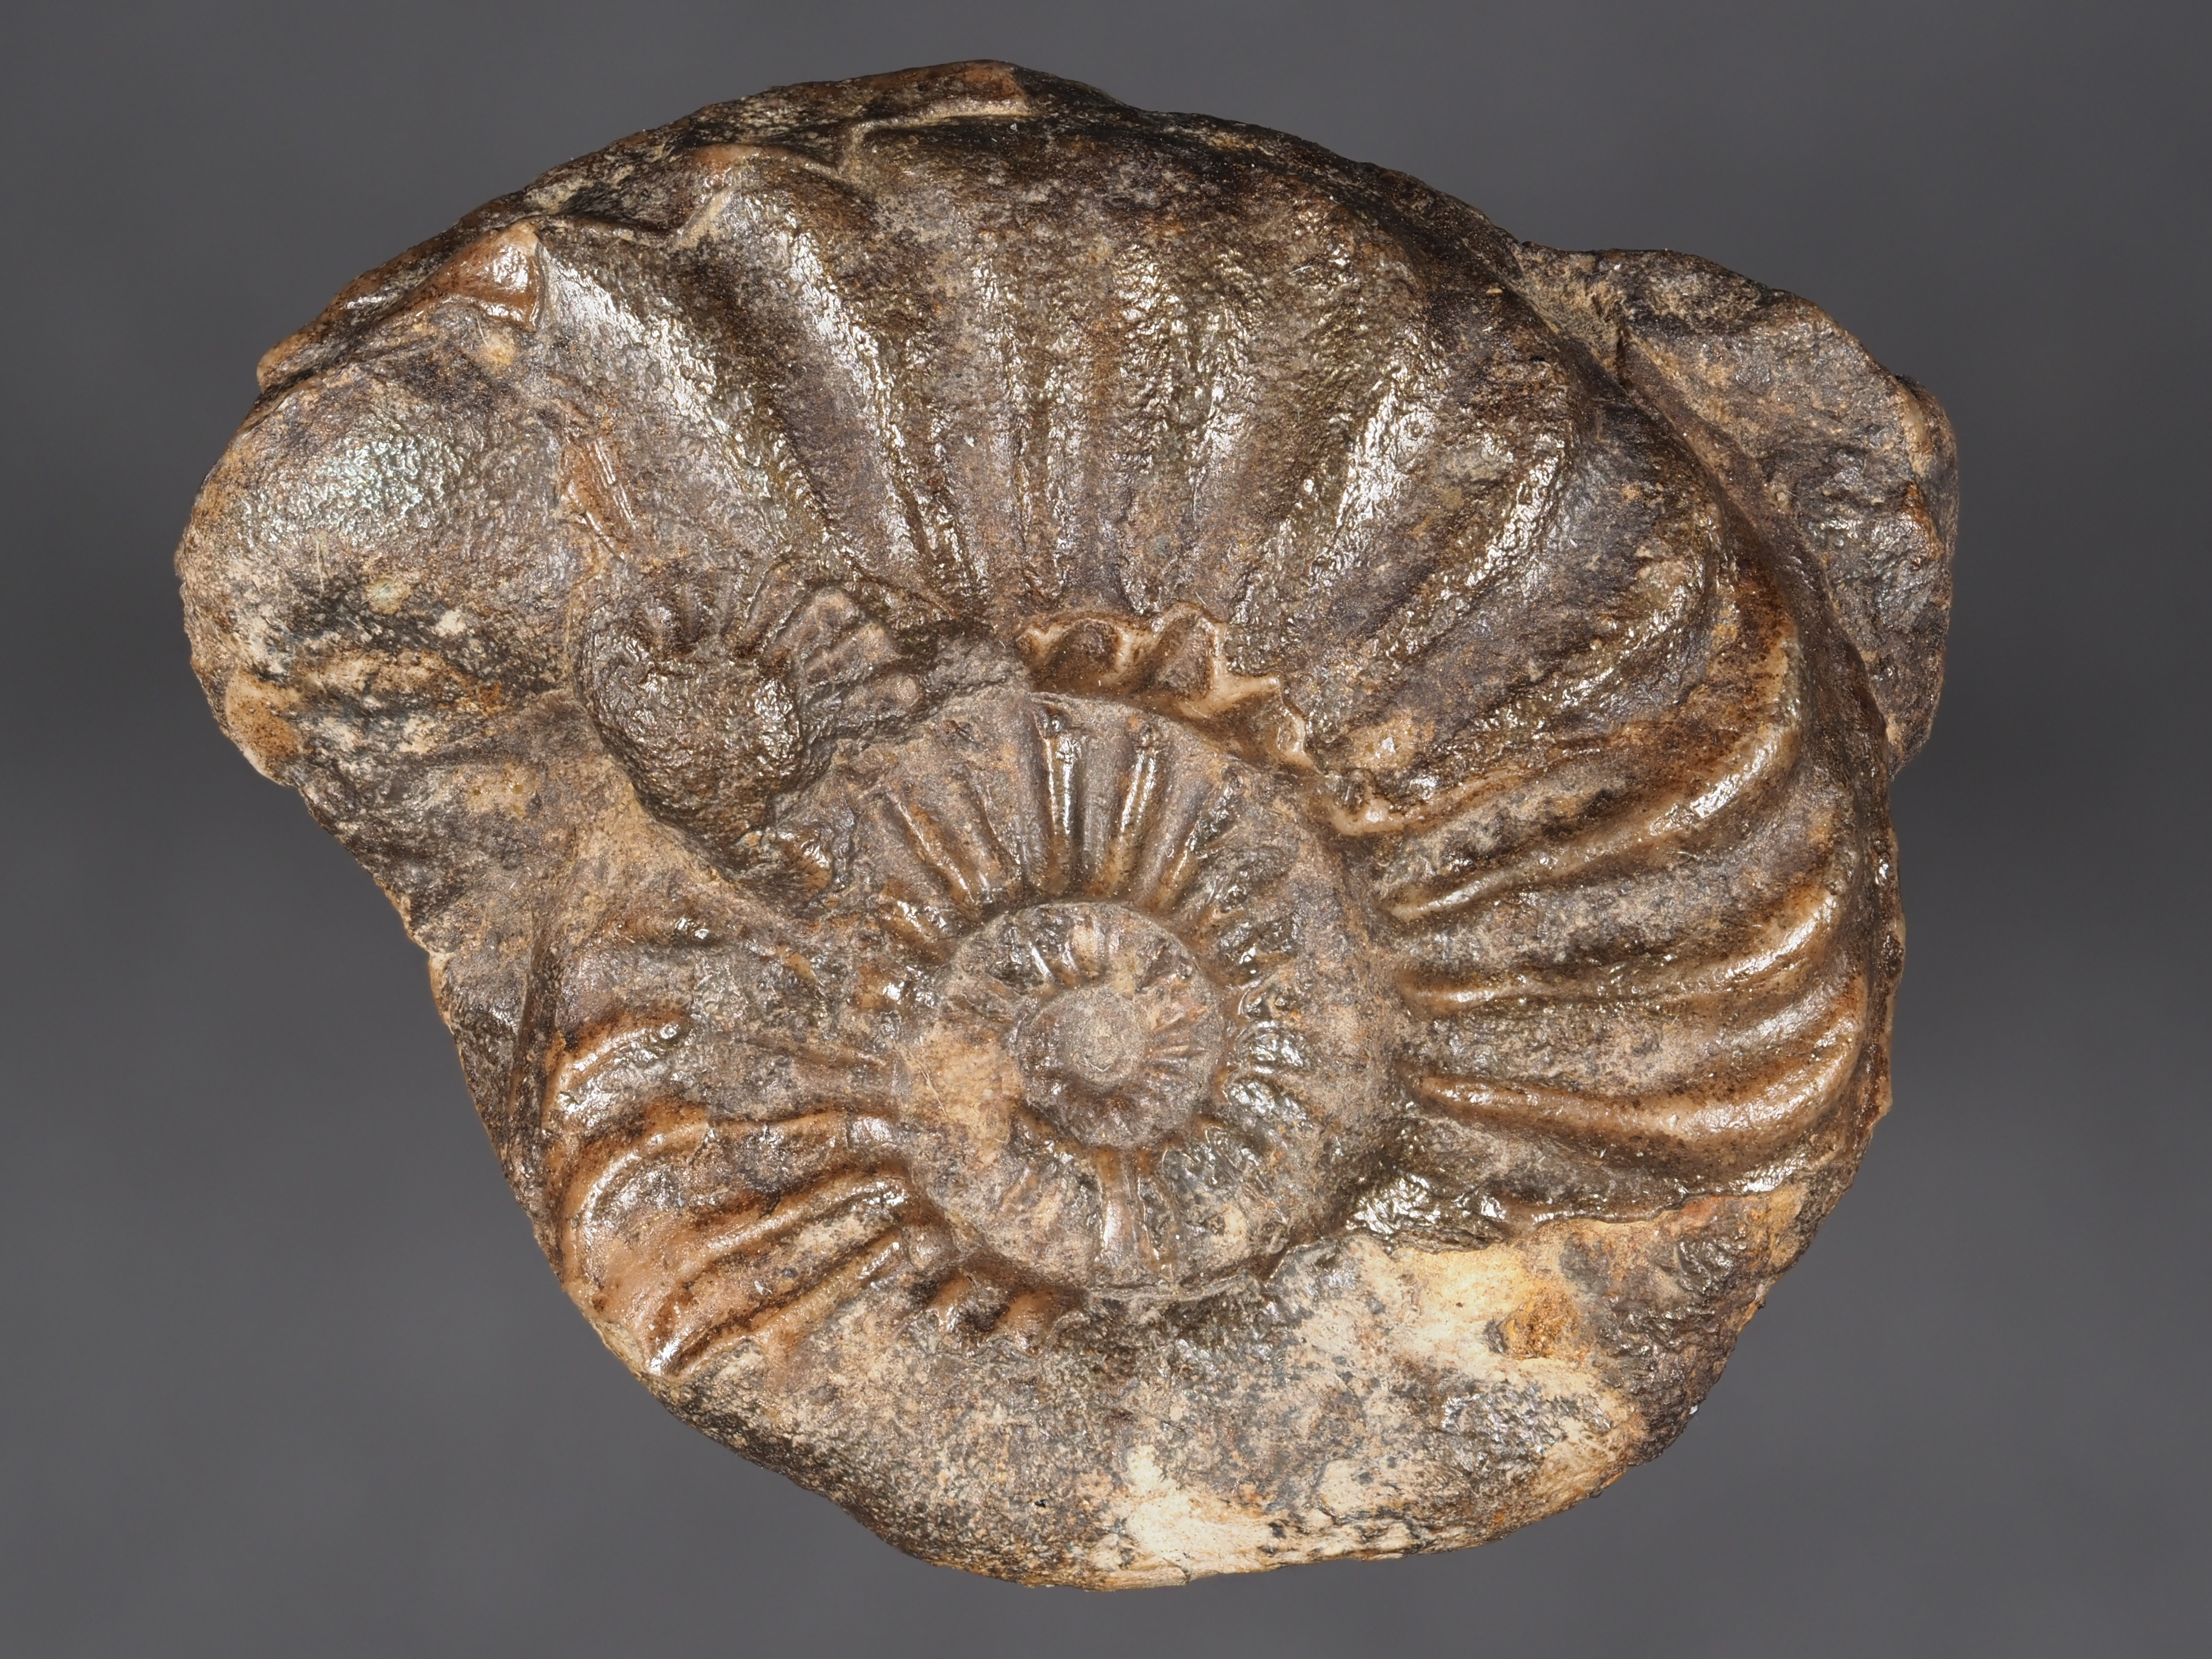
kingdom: Animalia
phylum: Mollusca
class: Cephalopoda
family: Amaltheidae
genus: Pleuroceras
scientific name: Pleuroceras solare
